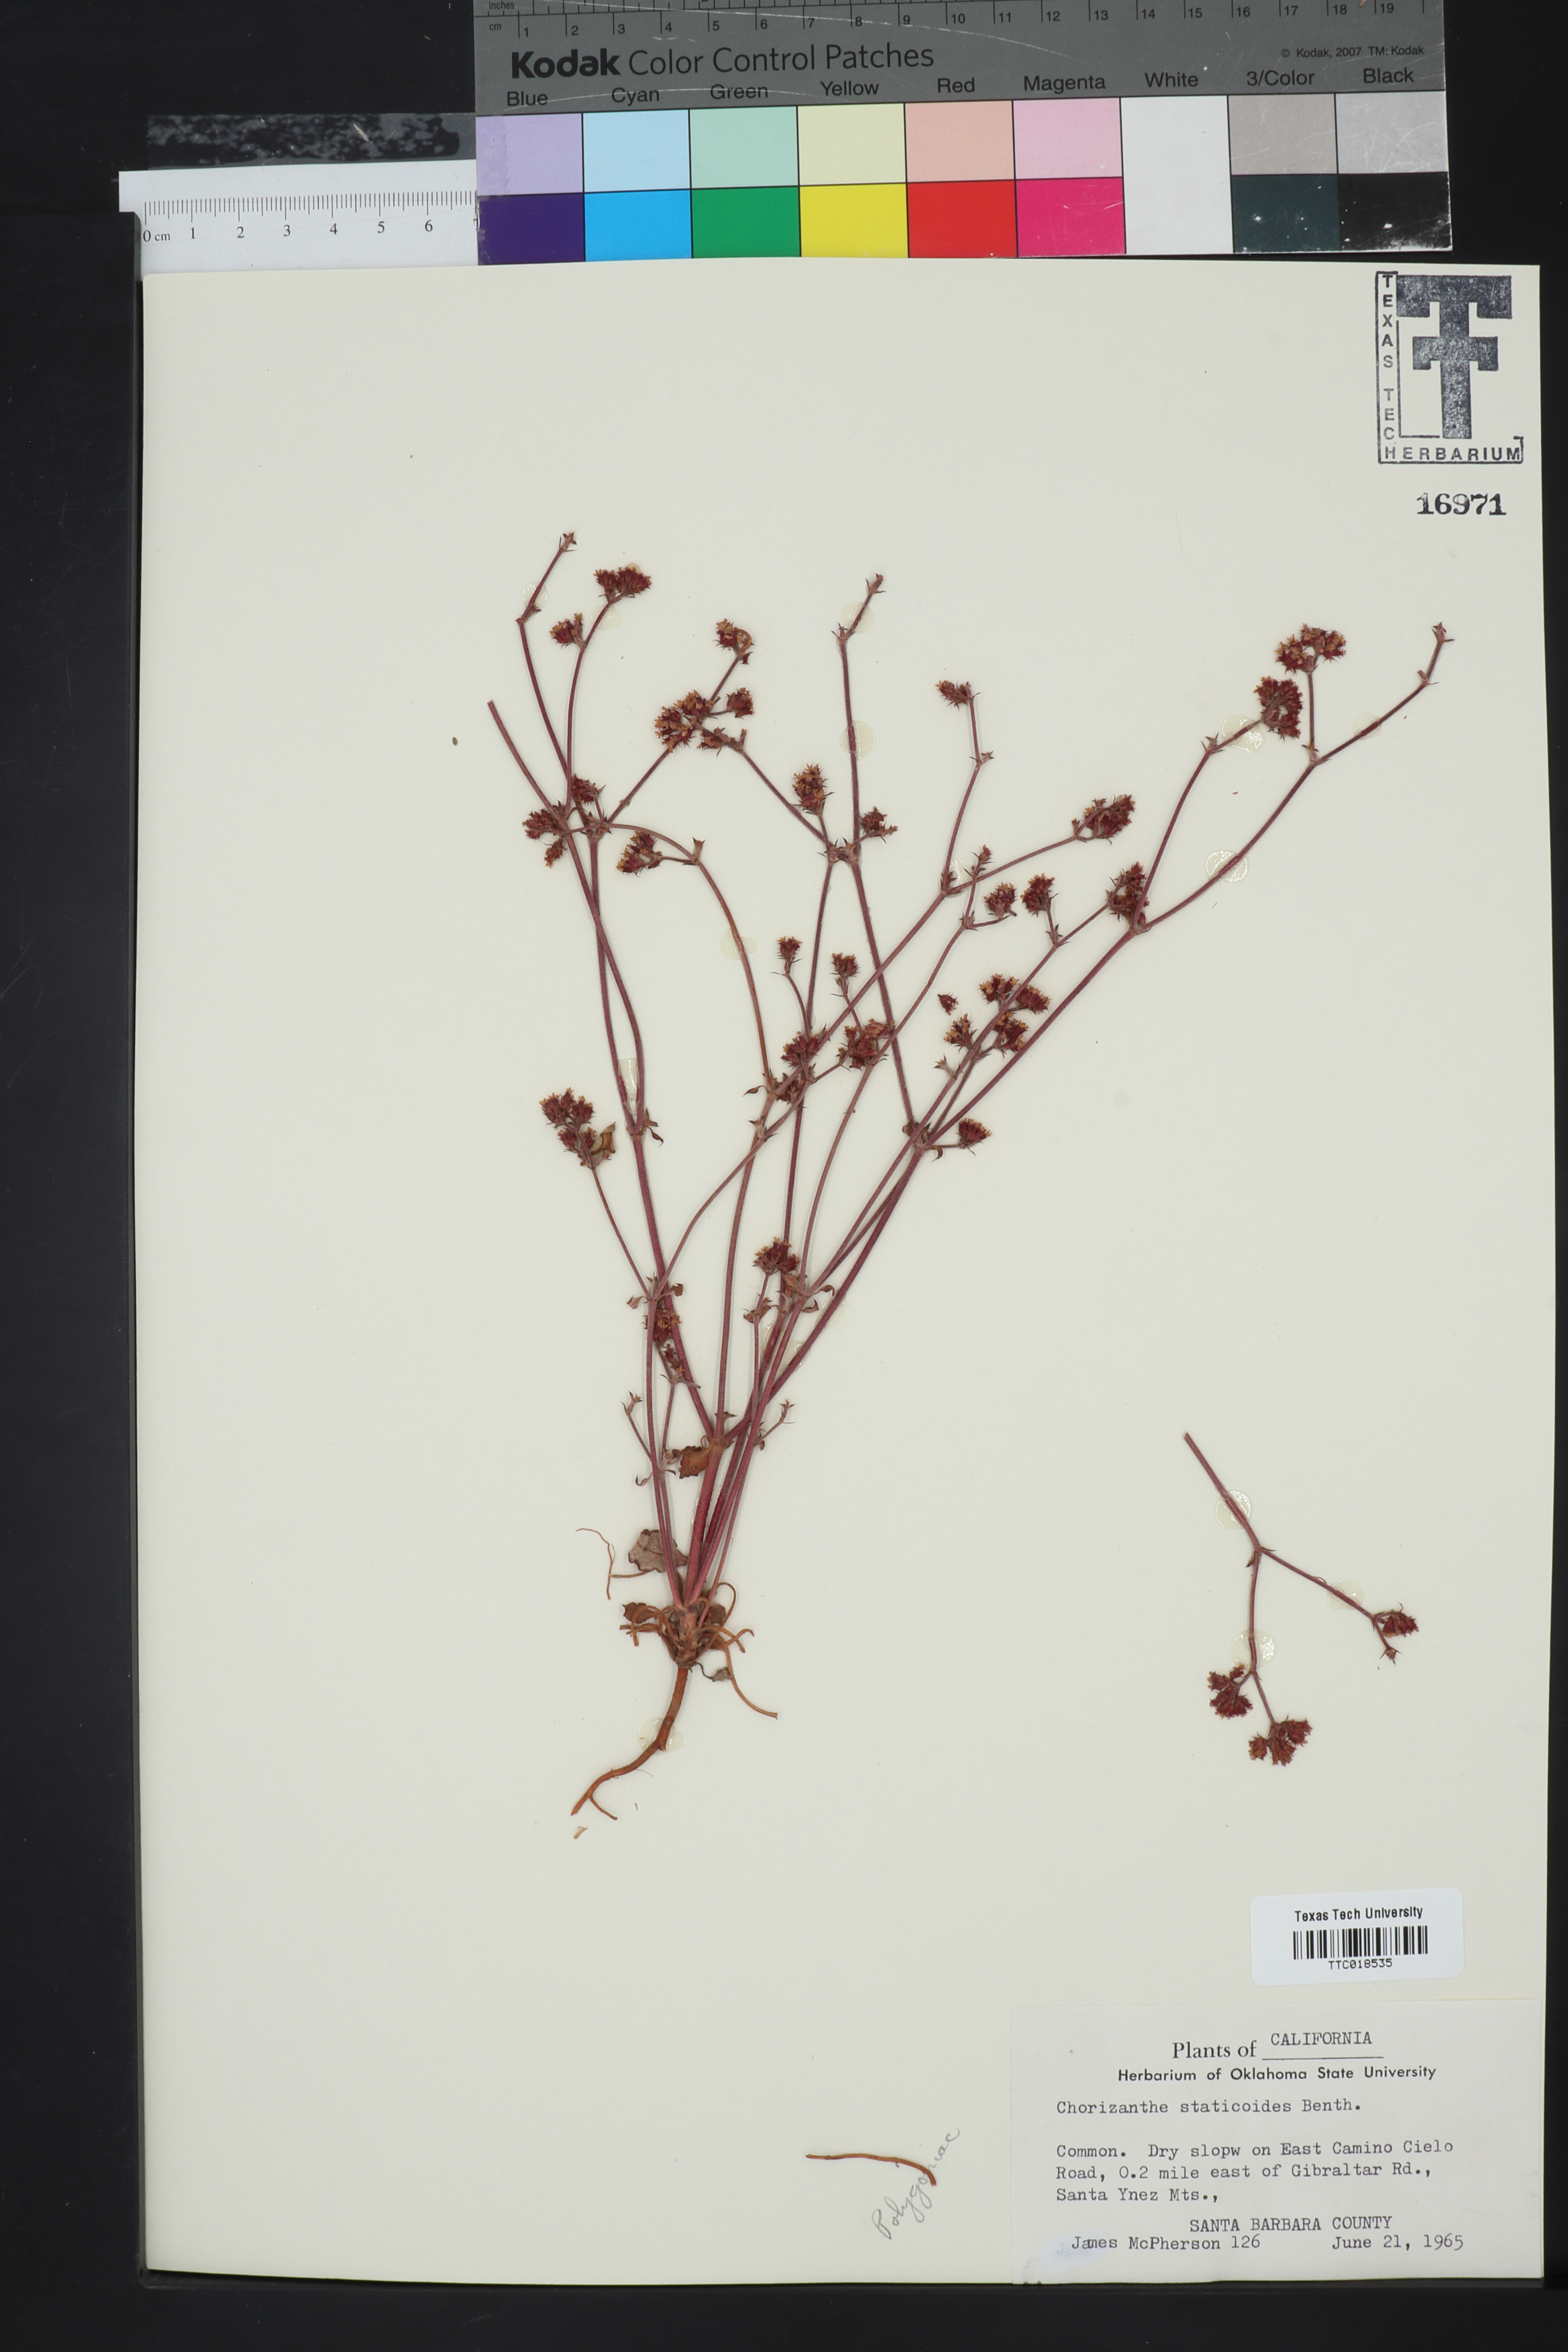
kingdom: Plantae
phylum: Tracheophyta
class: Magnoliopsida
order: Caryophyllales
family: Polygonaceae
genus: Chorizanthe
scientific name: Chorizanthe staticoides
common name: Turkish rugging
